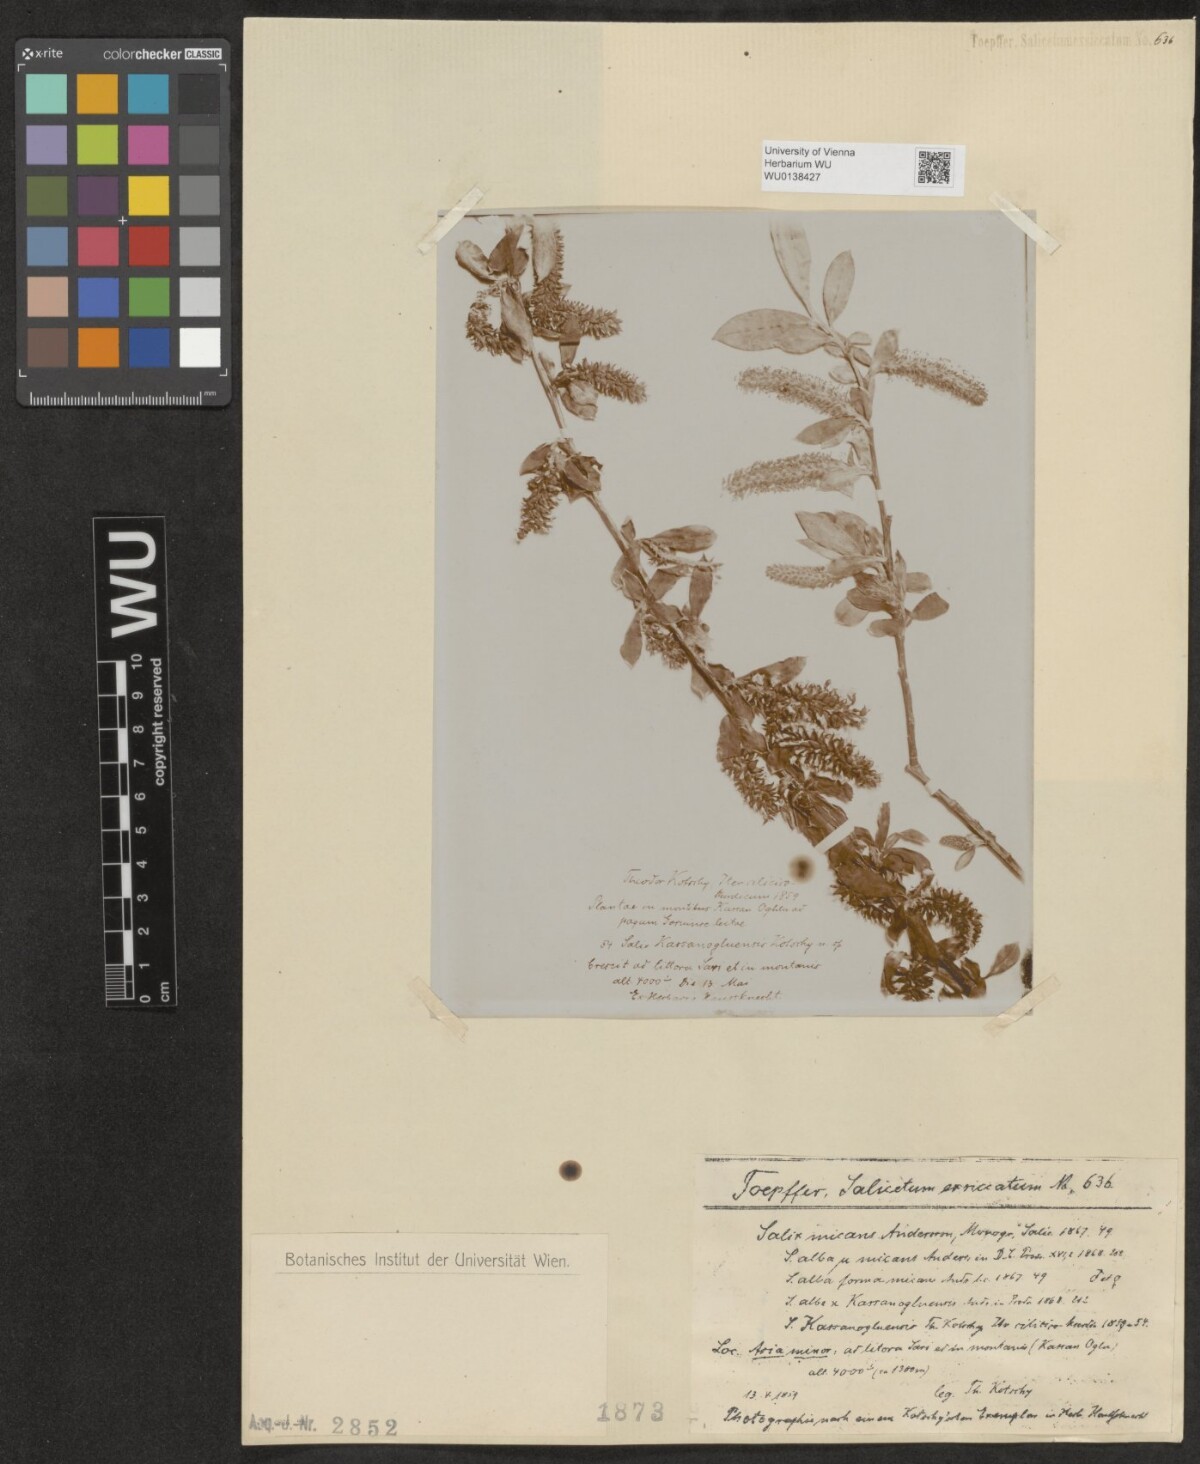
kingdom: Plantae
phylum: Tracheophyta
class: Magnoliopsida
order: Malpighiales
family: Salicaceae
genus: Salix
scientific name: Salix alba
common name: White willow
